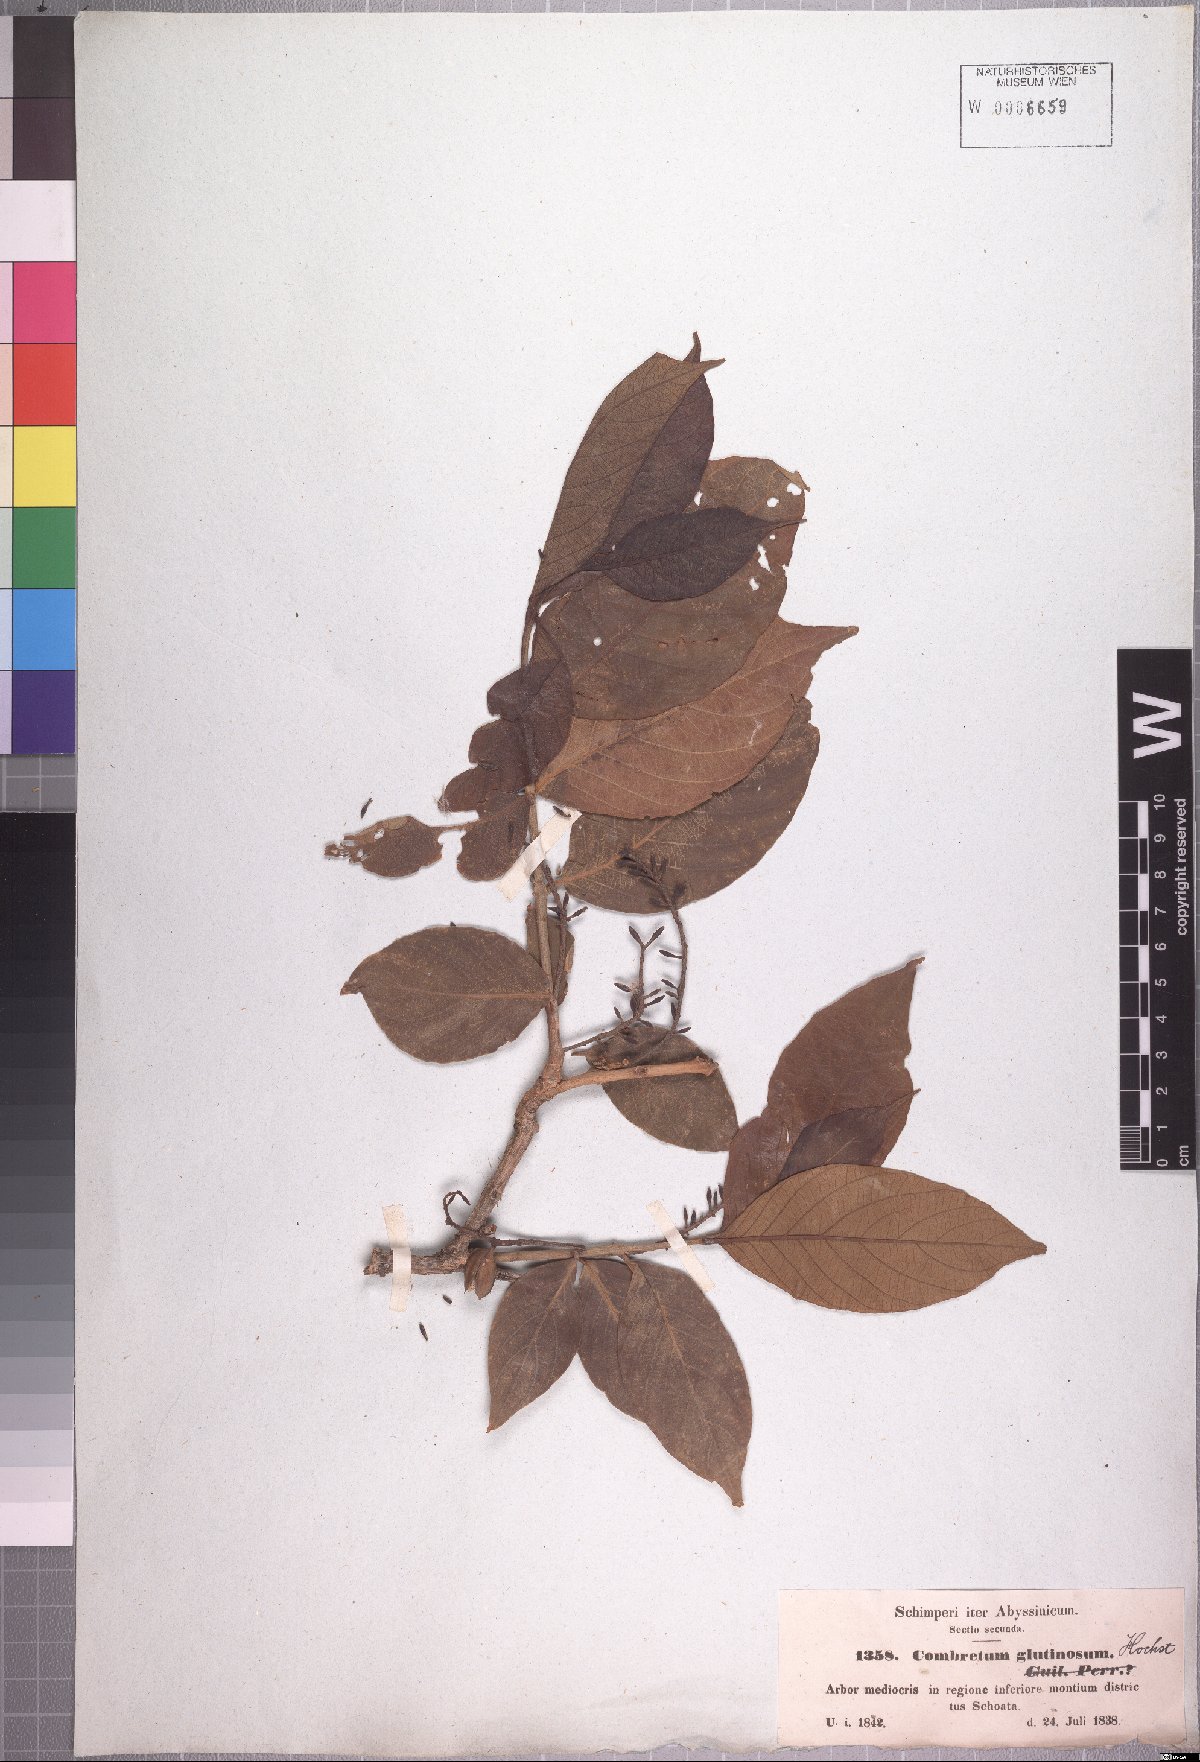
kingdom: Plantae
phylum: Tracheophyta
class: Magnoliopsida
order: Myrtales
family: Combretaceae
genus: Combretum
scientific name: Combretum molle
